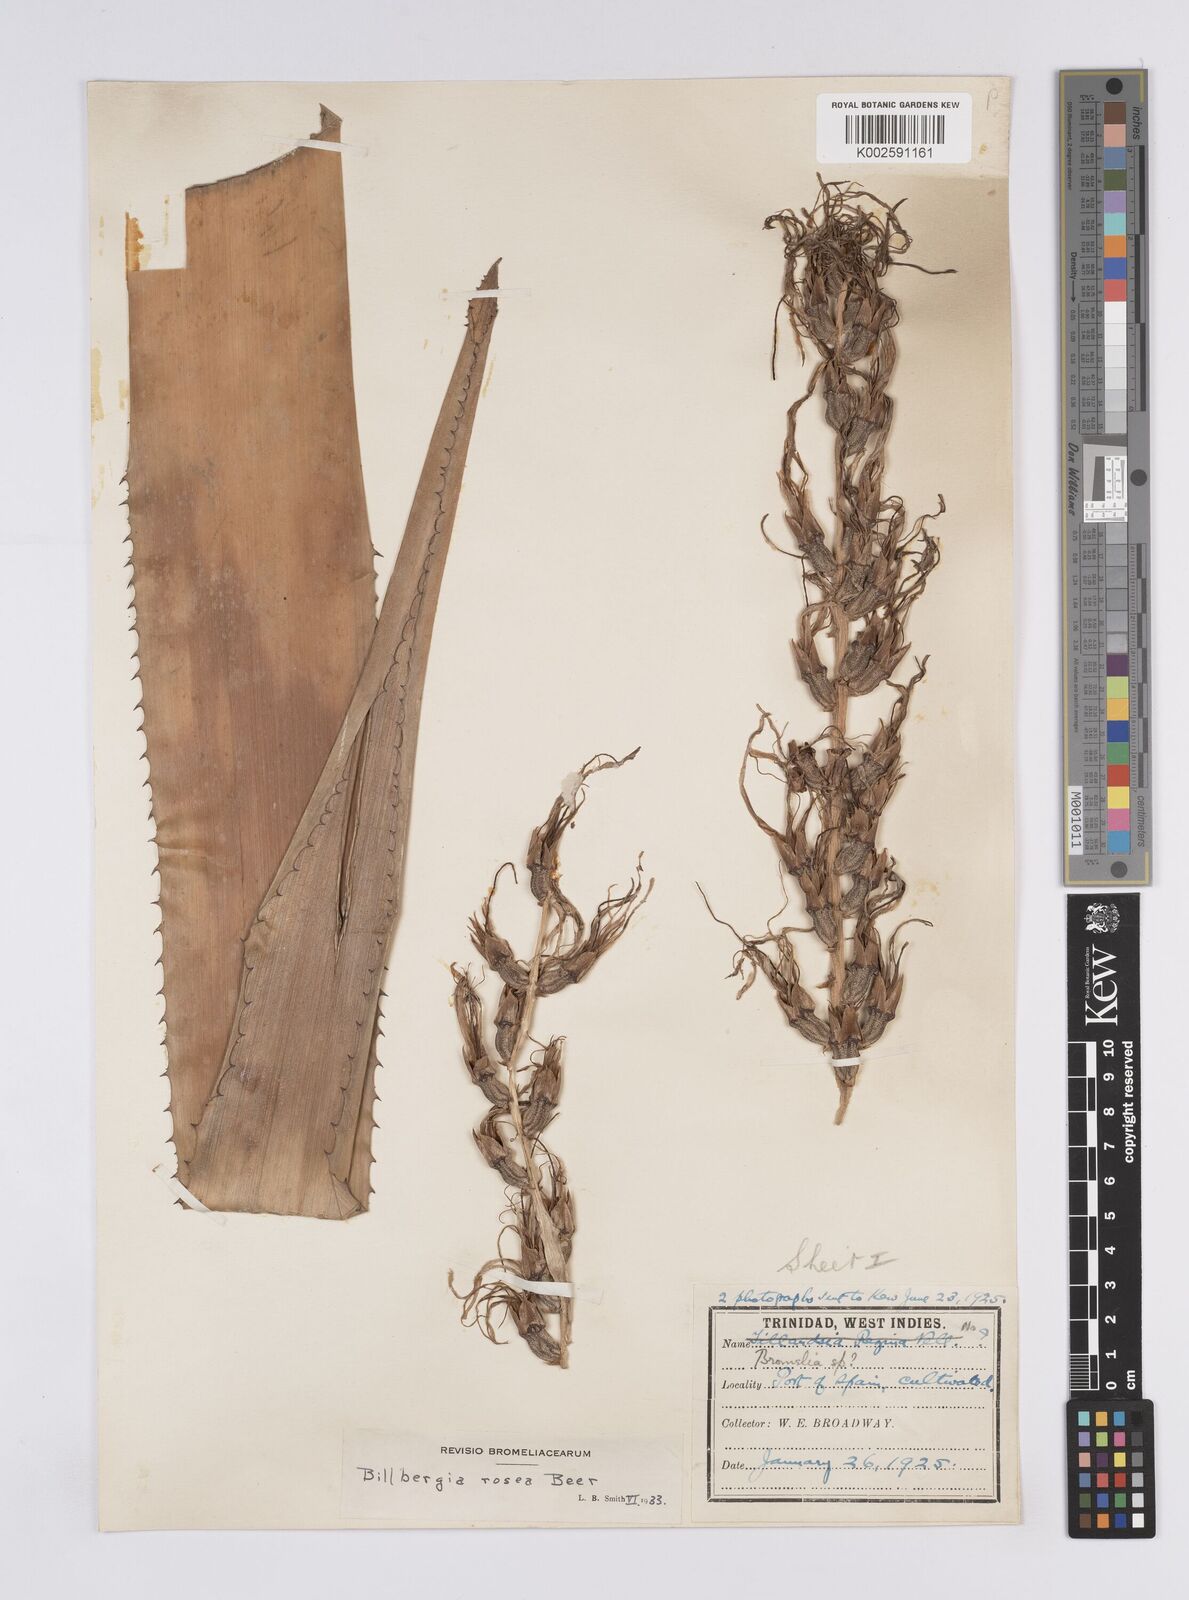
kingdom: Plantae
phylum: Tracheophyta
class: Liliopsida
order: Poales
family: Bromeliaceae
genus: Billbergia
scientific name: Billbergia rosea
